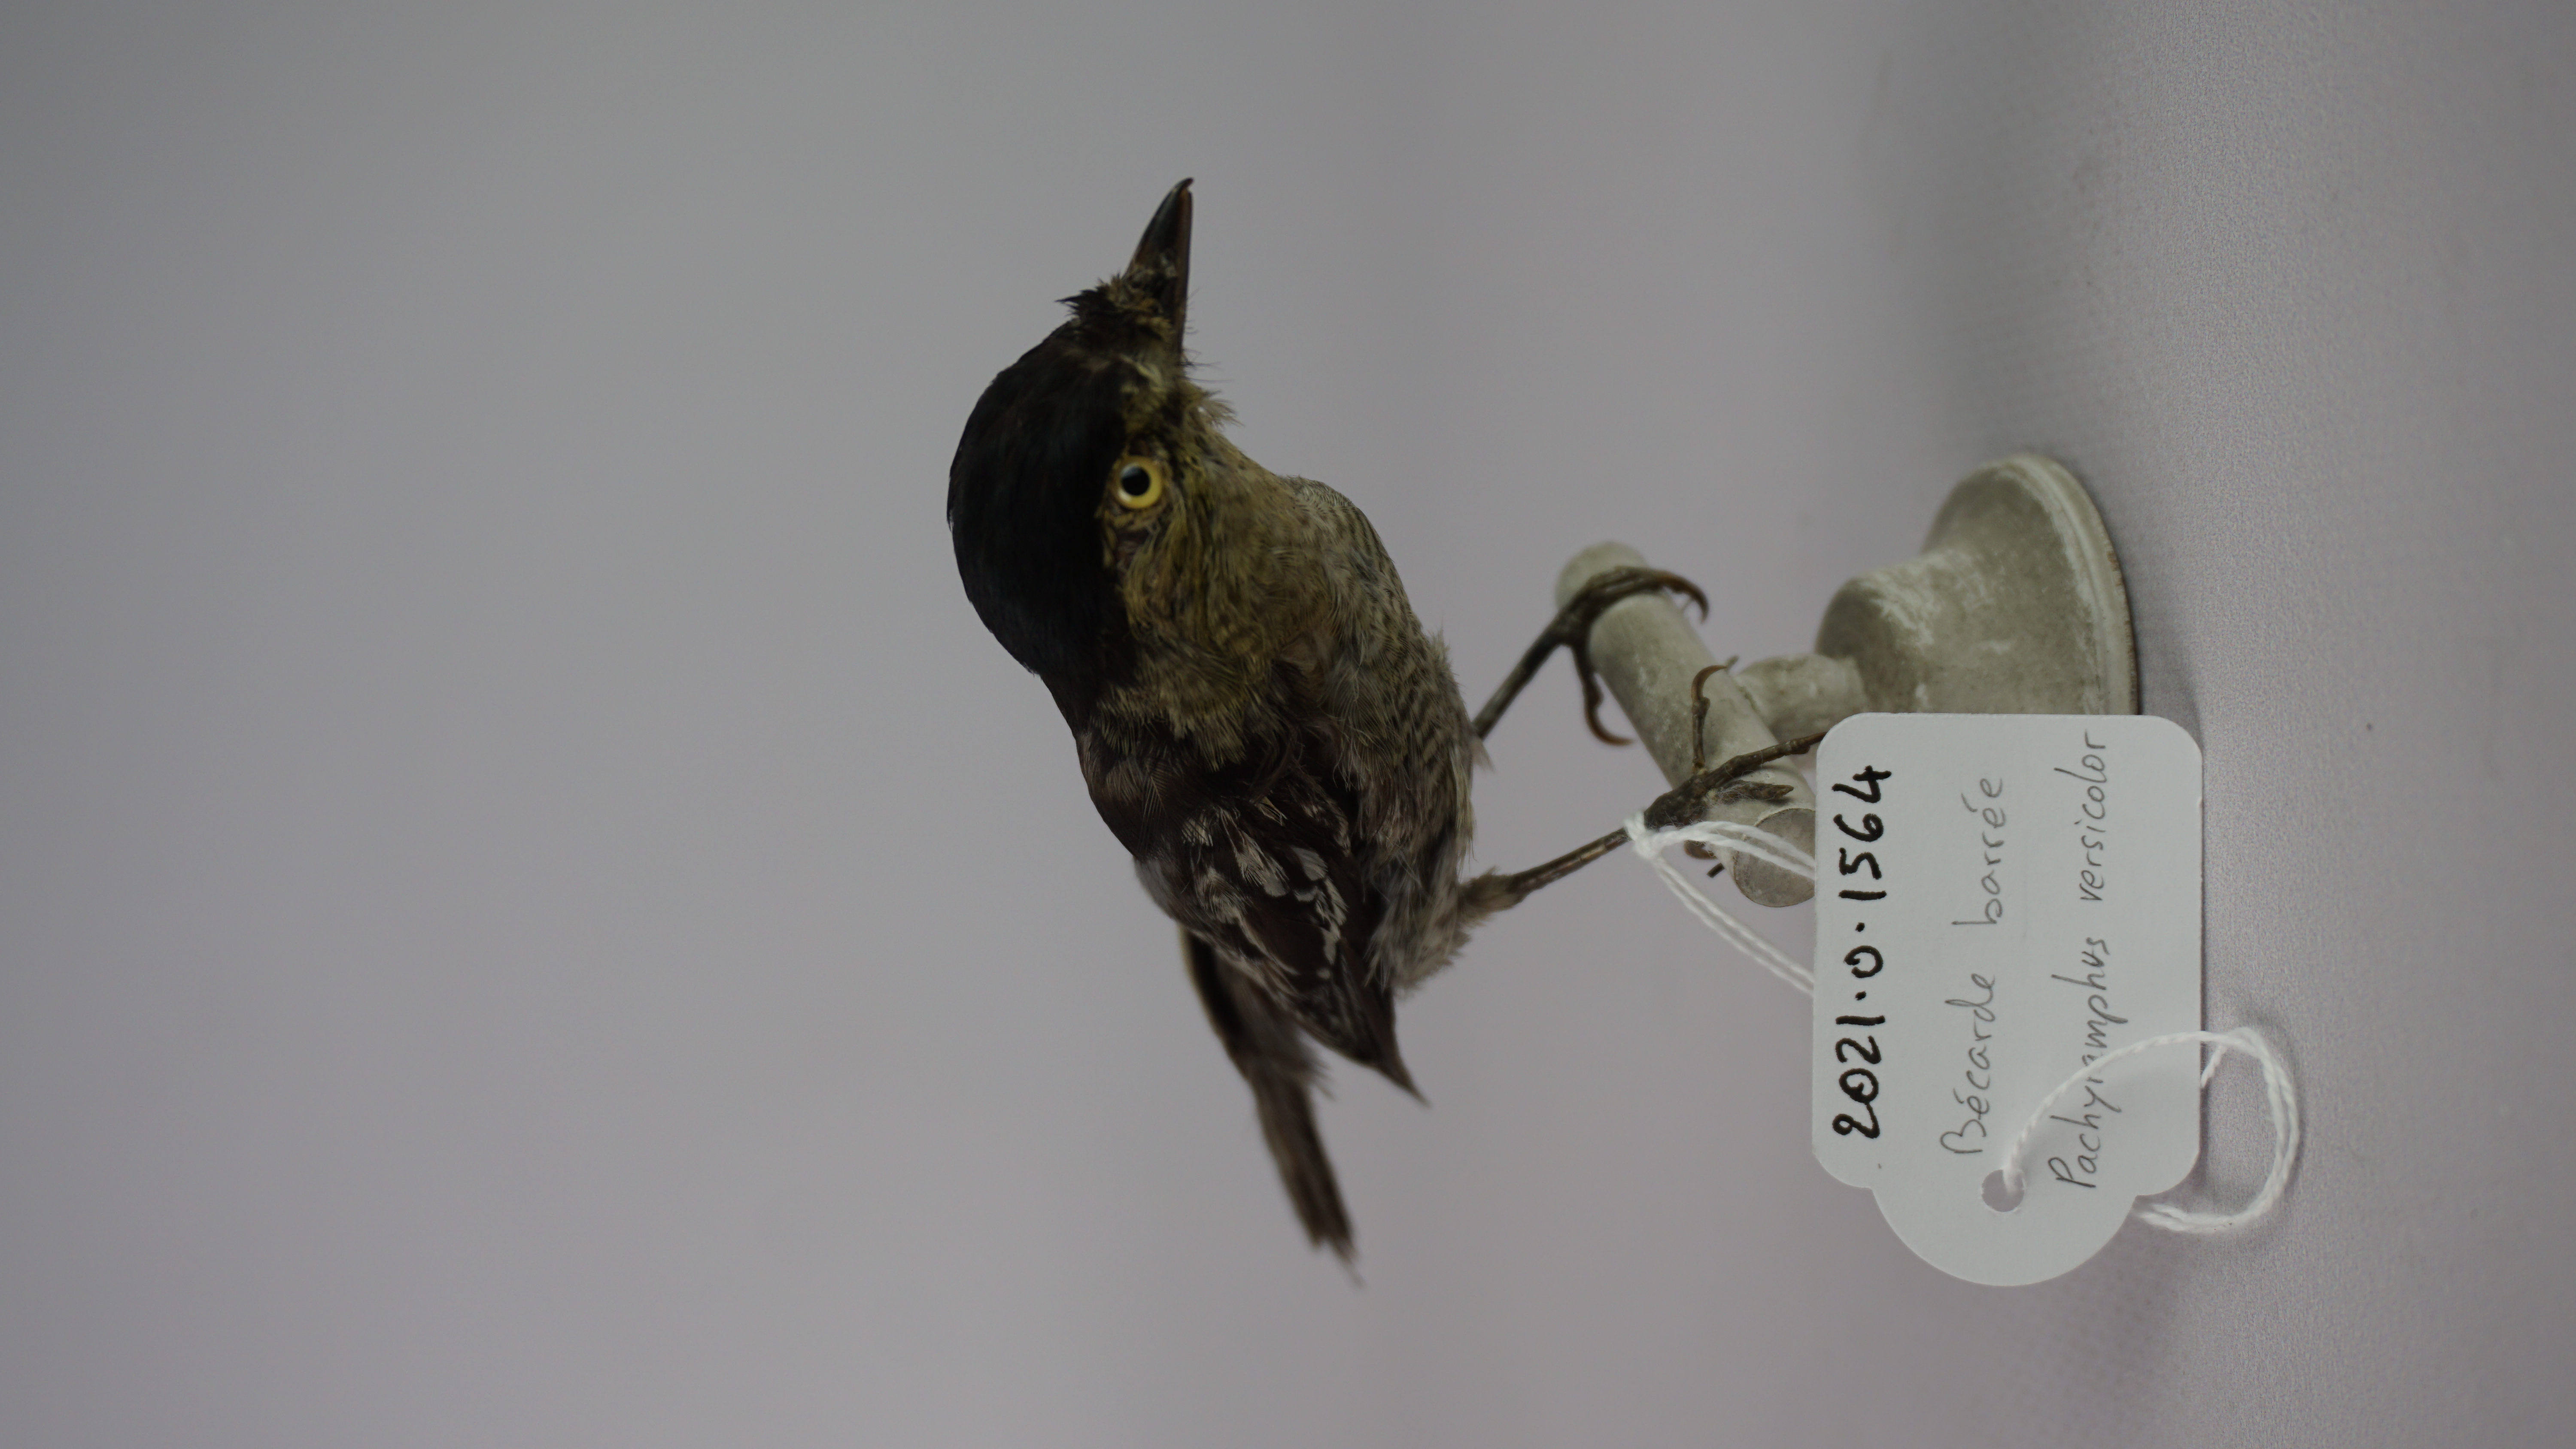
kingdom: Animalia
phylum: Chordata
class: Aves
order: Passeriformes
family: Cotingidae
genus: Pachyramphus
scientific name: Pachyramphus versicolor
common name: Barred becard
